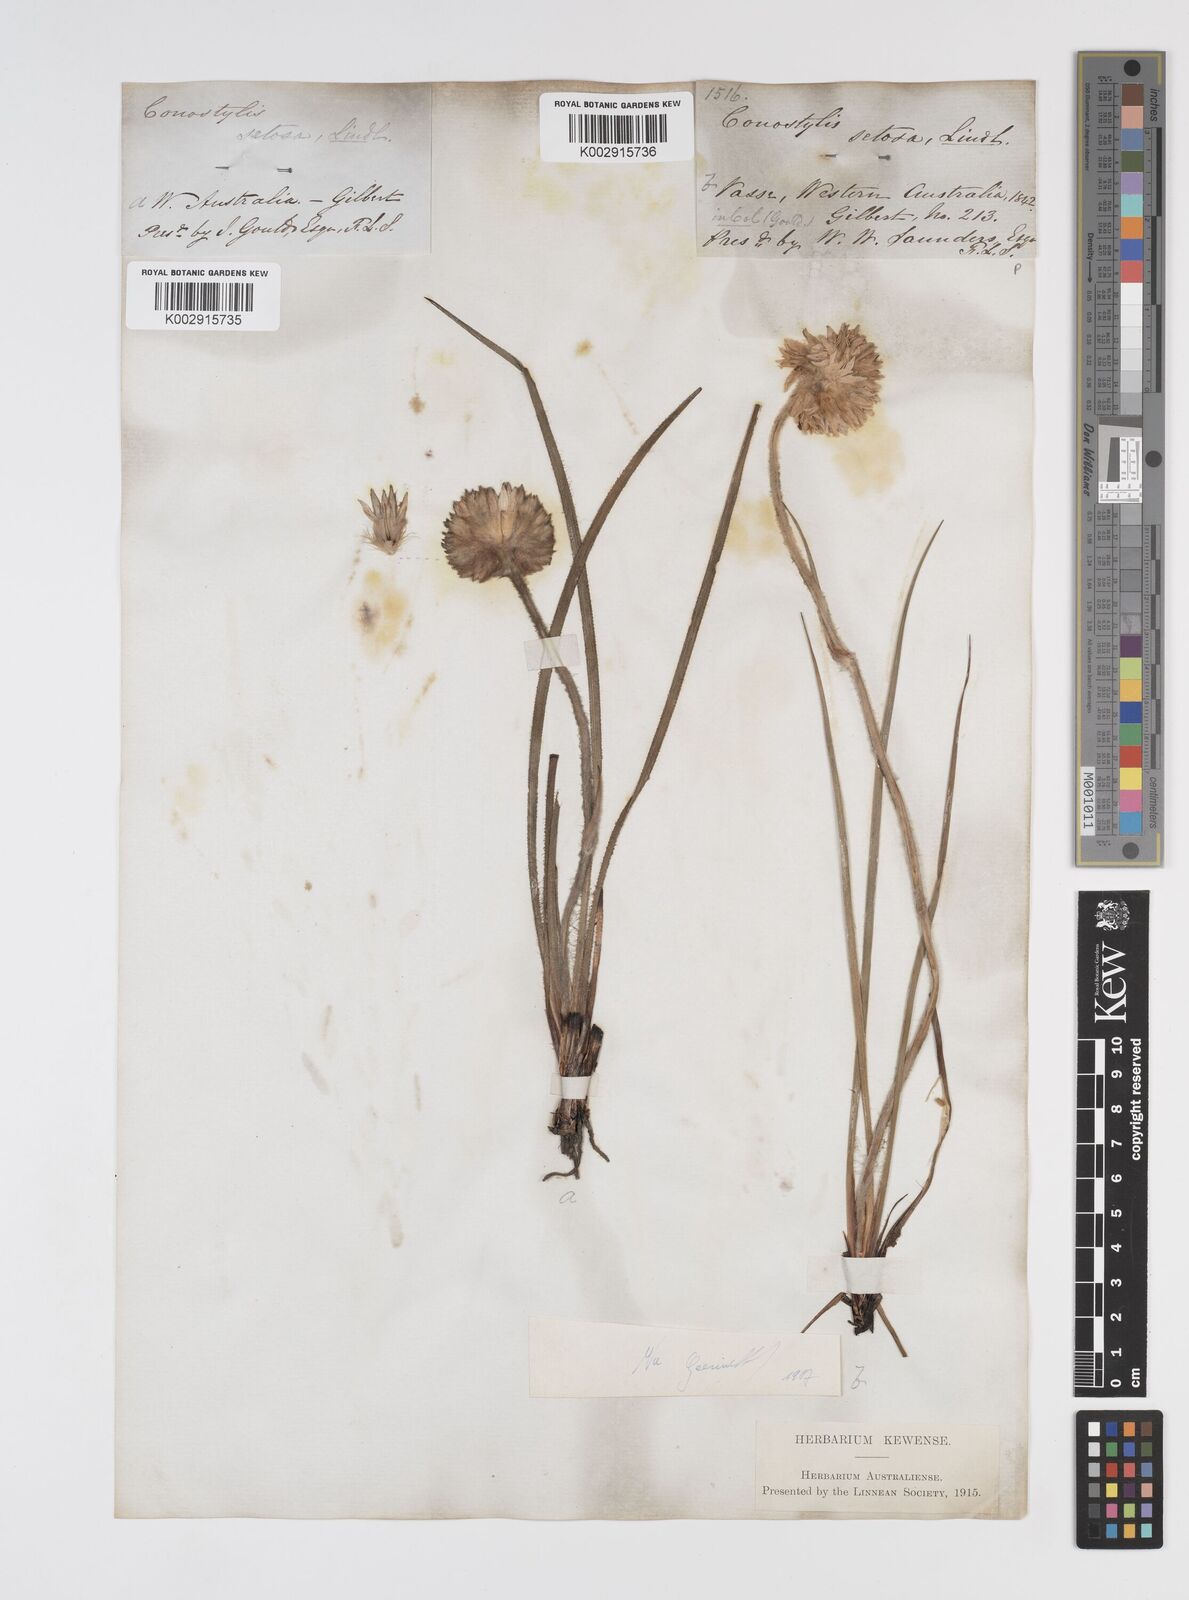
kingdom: Plantae
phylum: Tracheophyta
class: Liliopsida
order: Commelinales
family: Haemodoraceae
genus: Conostylis
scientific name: Conostylis setosa
